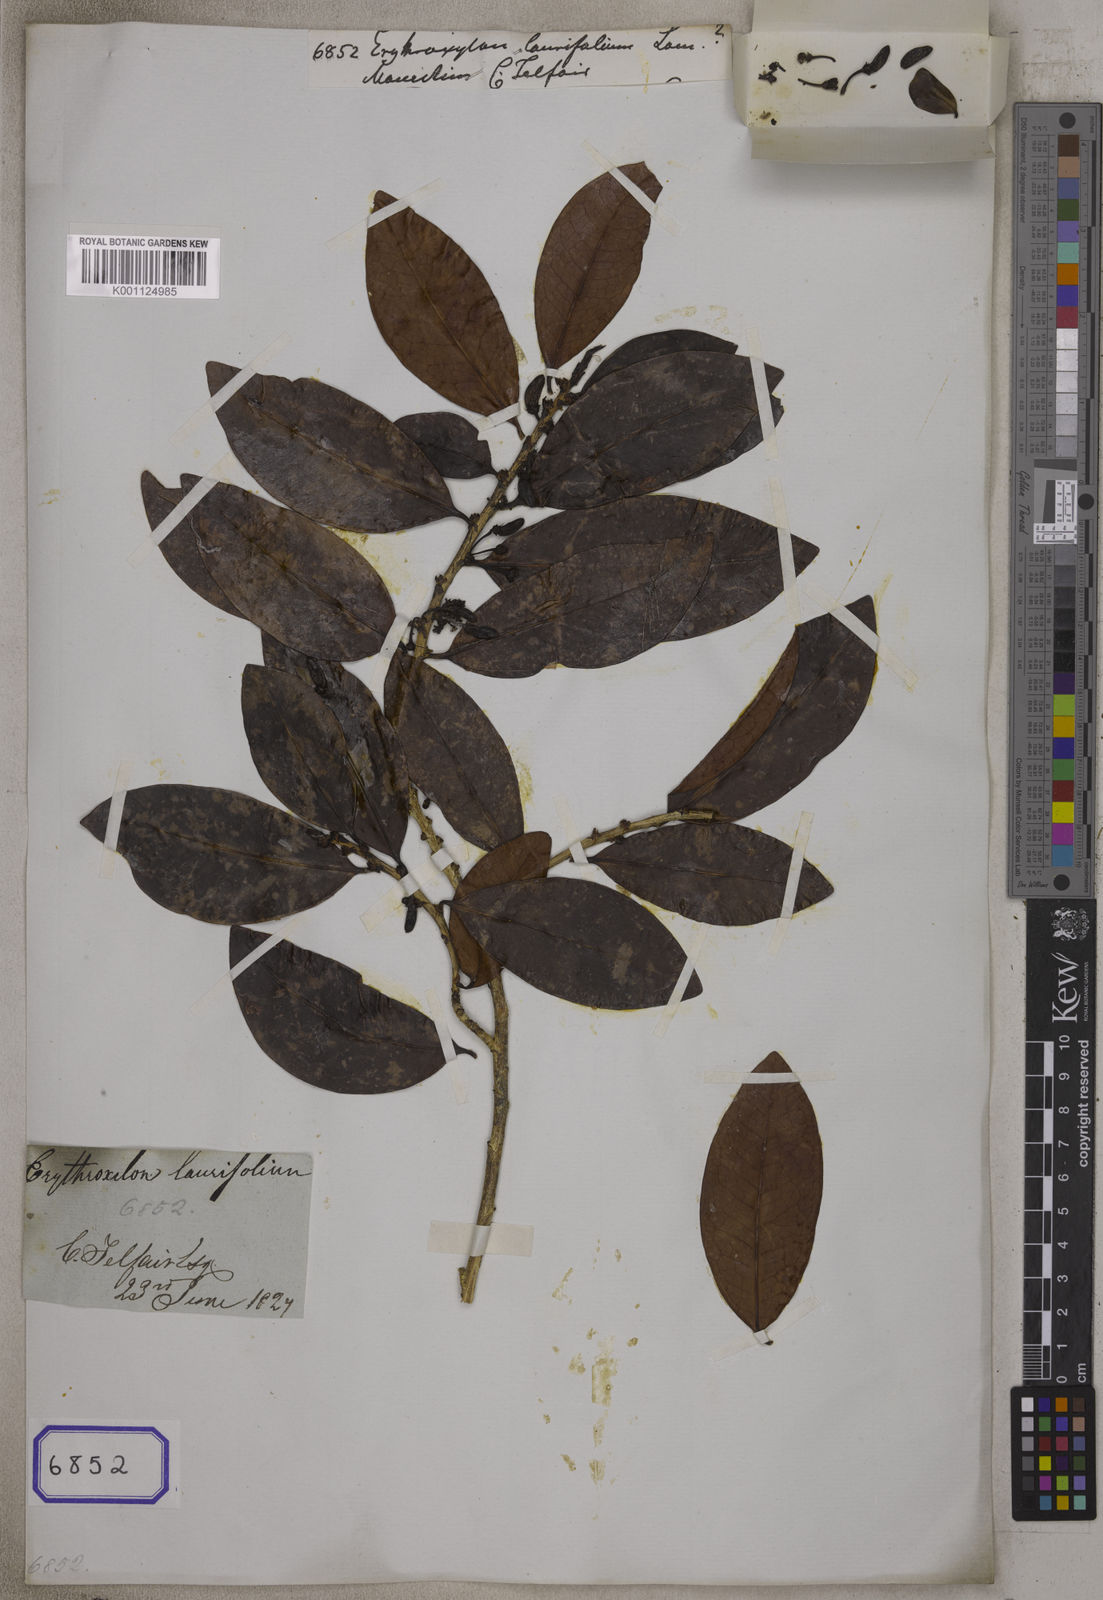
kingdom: Plantae
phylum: Tracheophyta
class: Magnoliopsida
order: Malpighiales
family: Erythroxylaceae
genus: Erythroxylum
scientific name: Erythroxylum laurifolium
